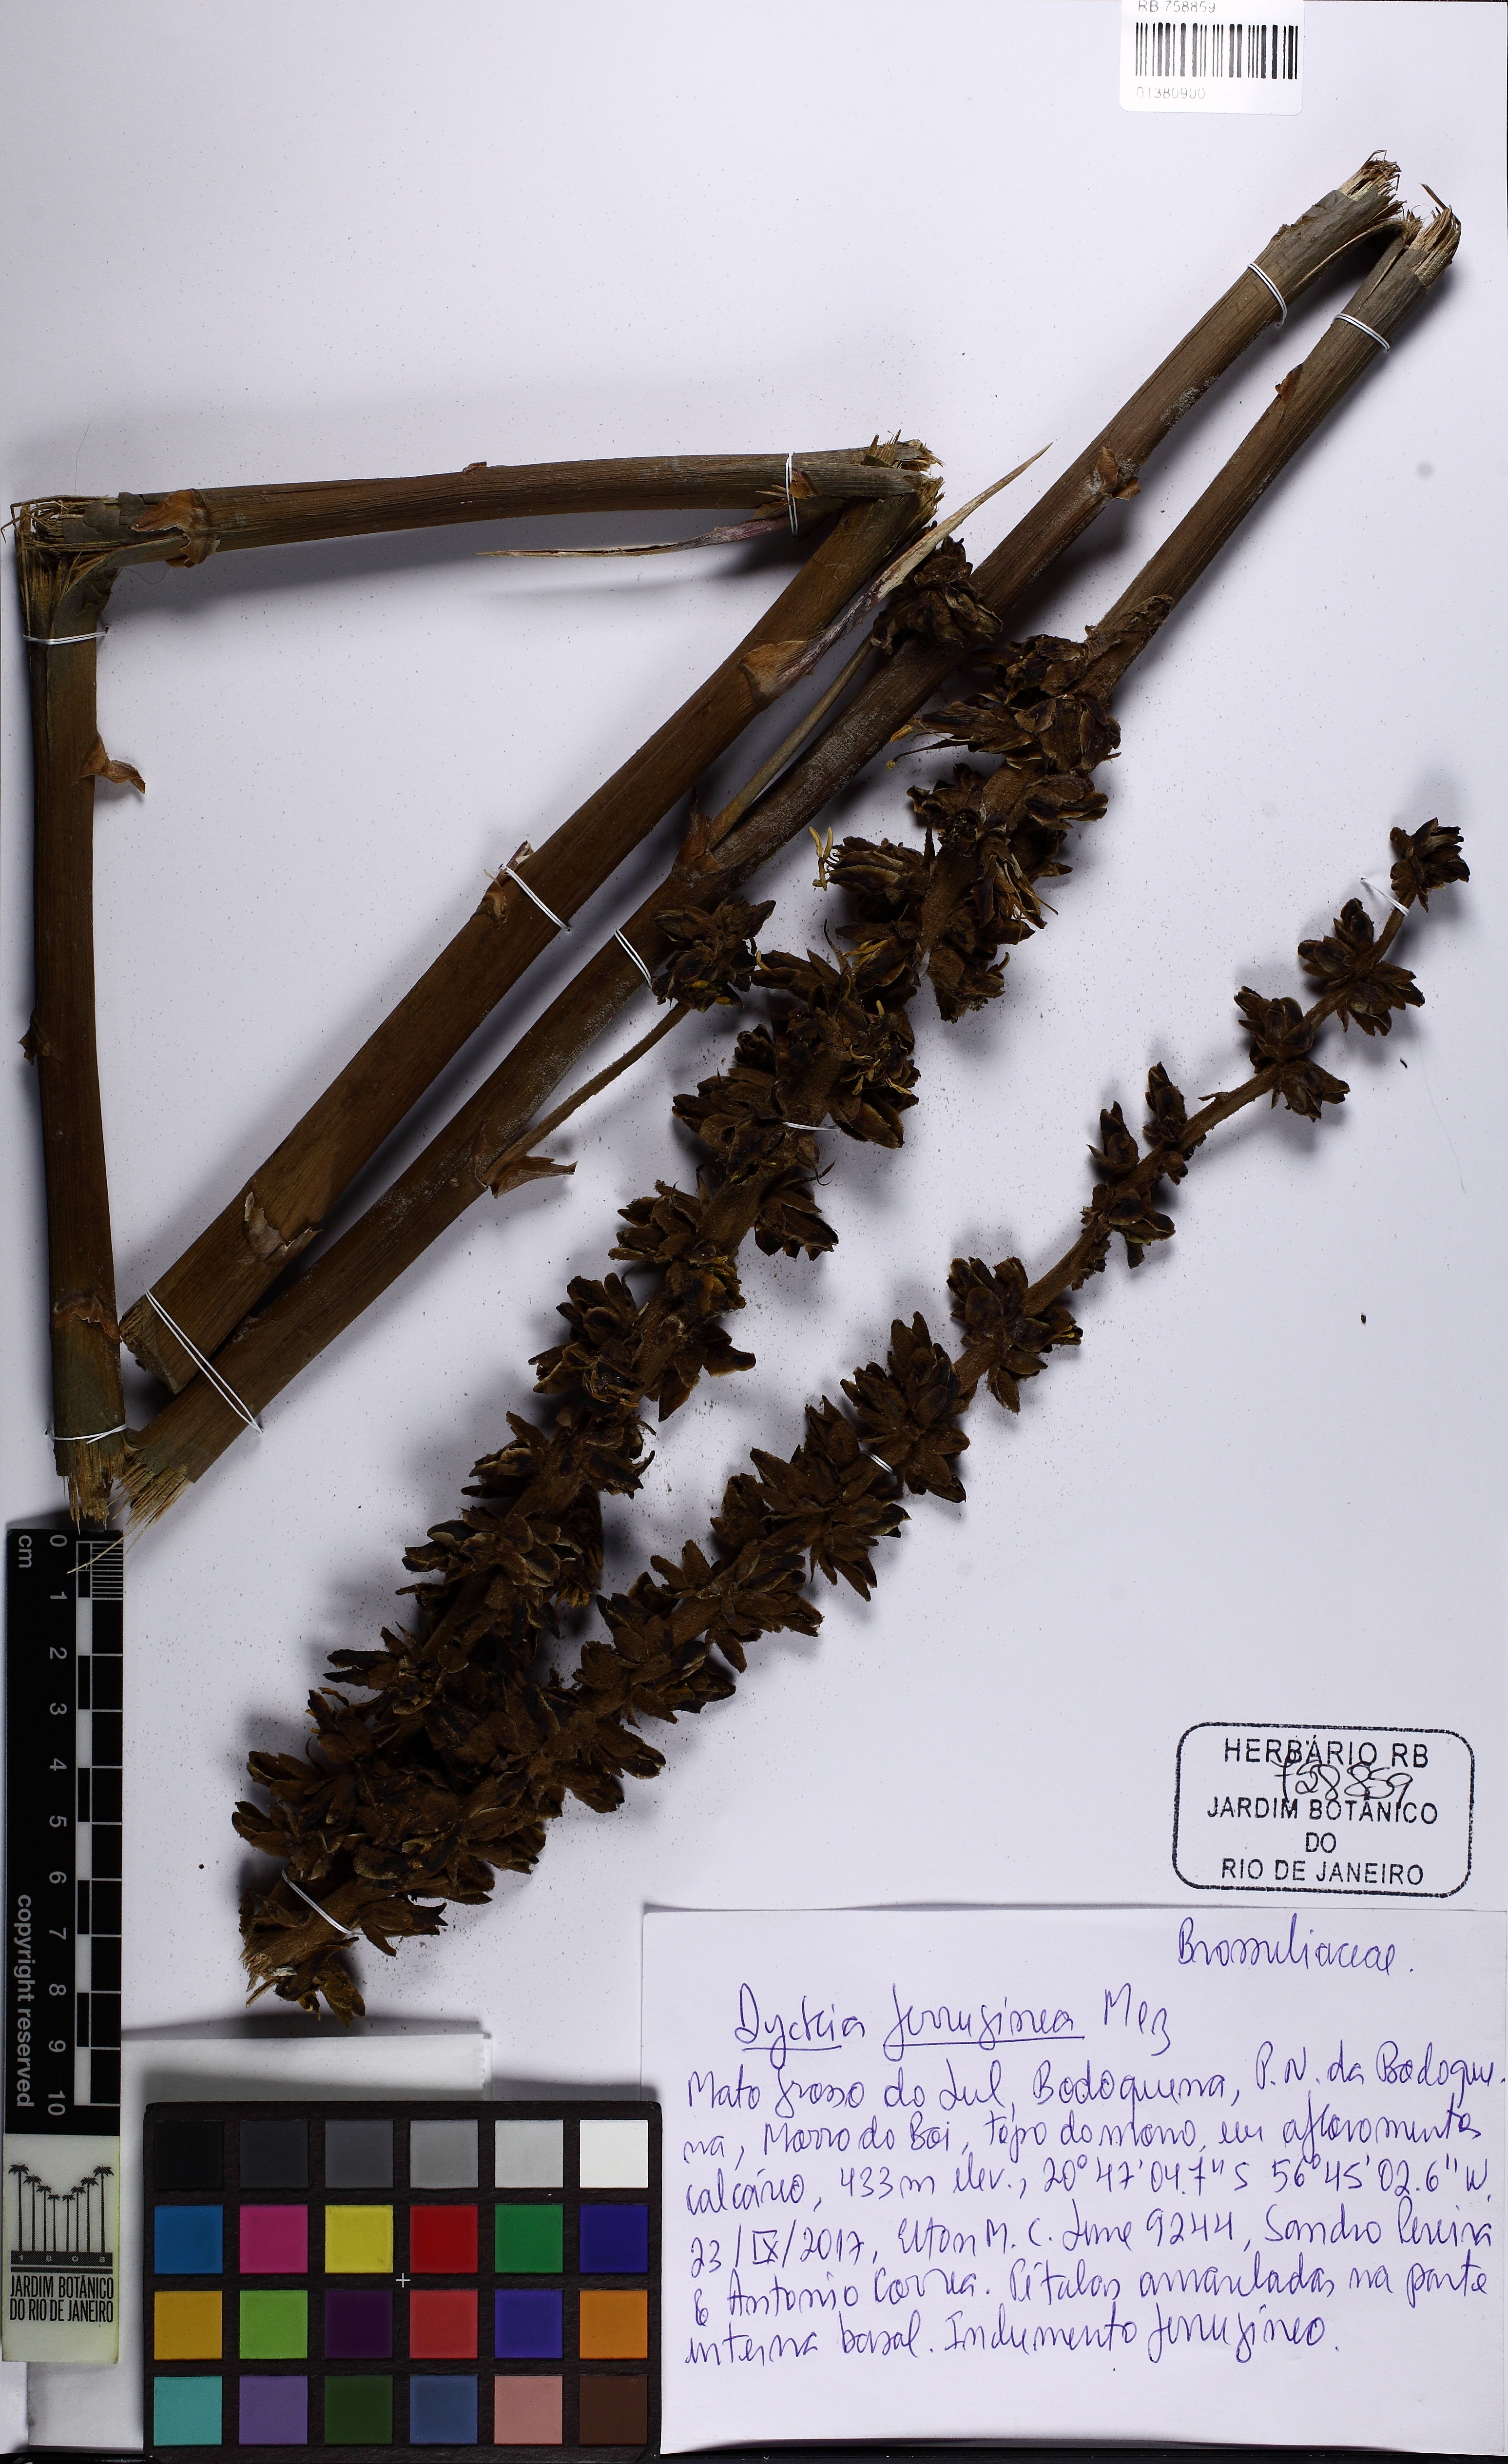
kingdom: Plantae
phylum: Tracheophyta
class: Liliopsida
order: Poales
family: Bromeliaceae
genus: Dyckia
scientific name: Dyckia ferruginea
